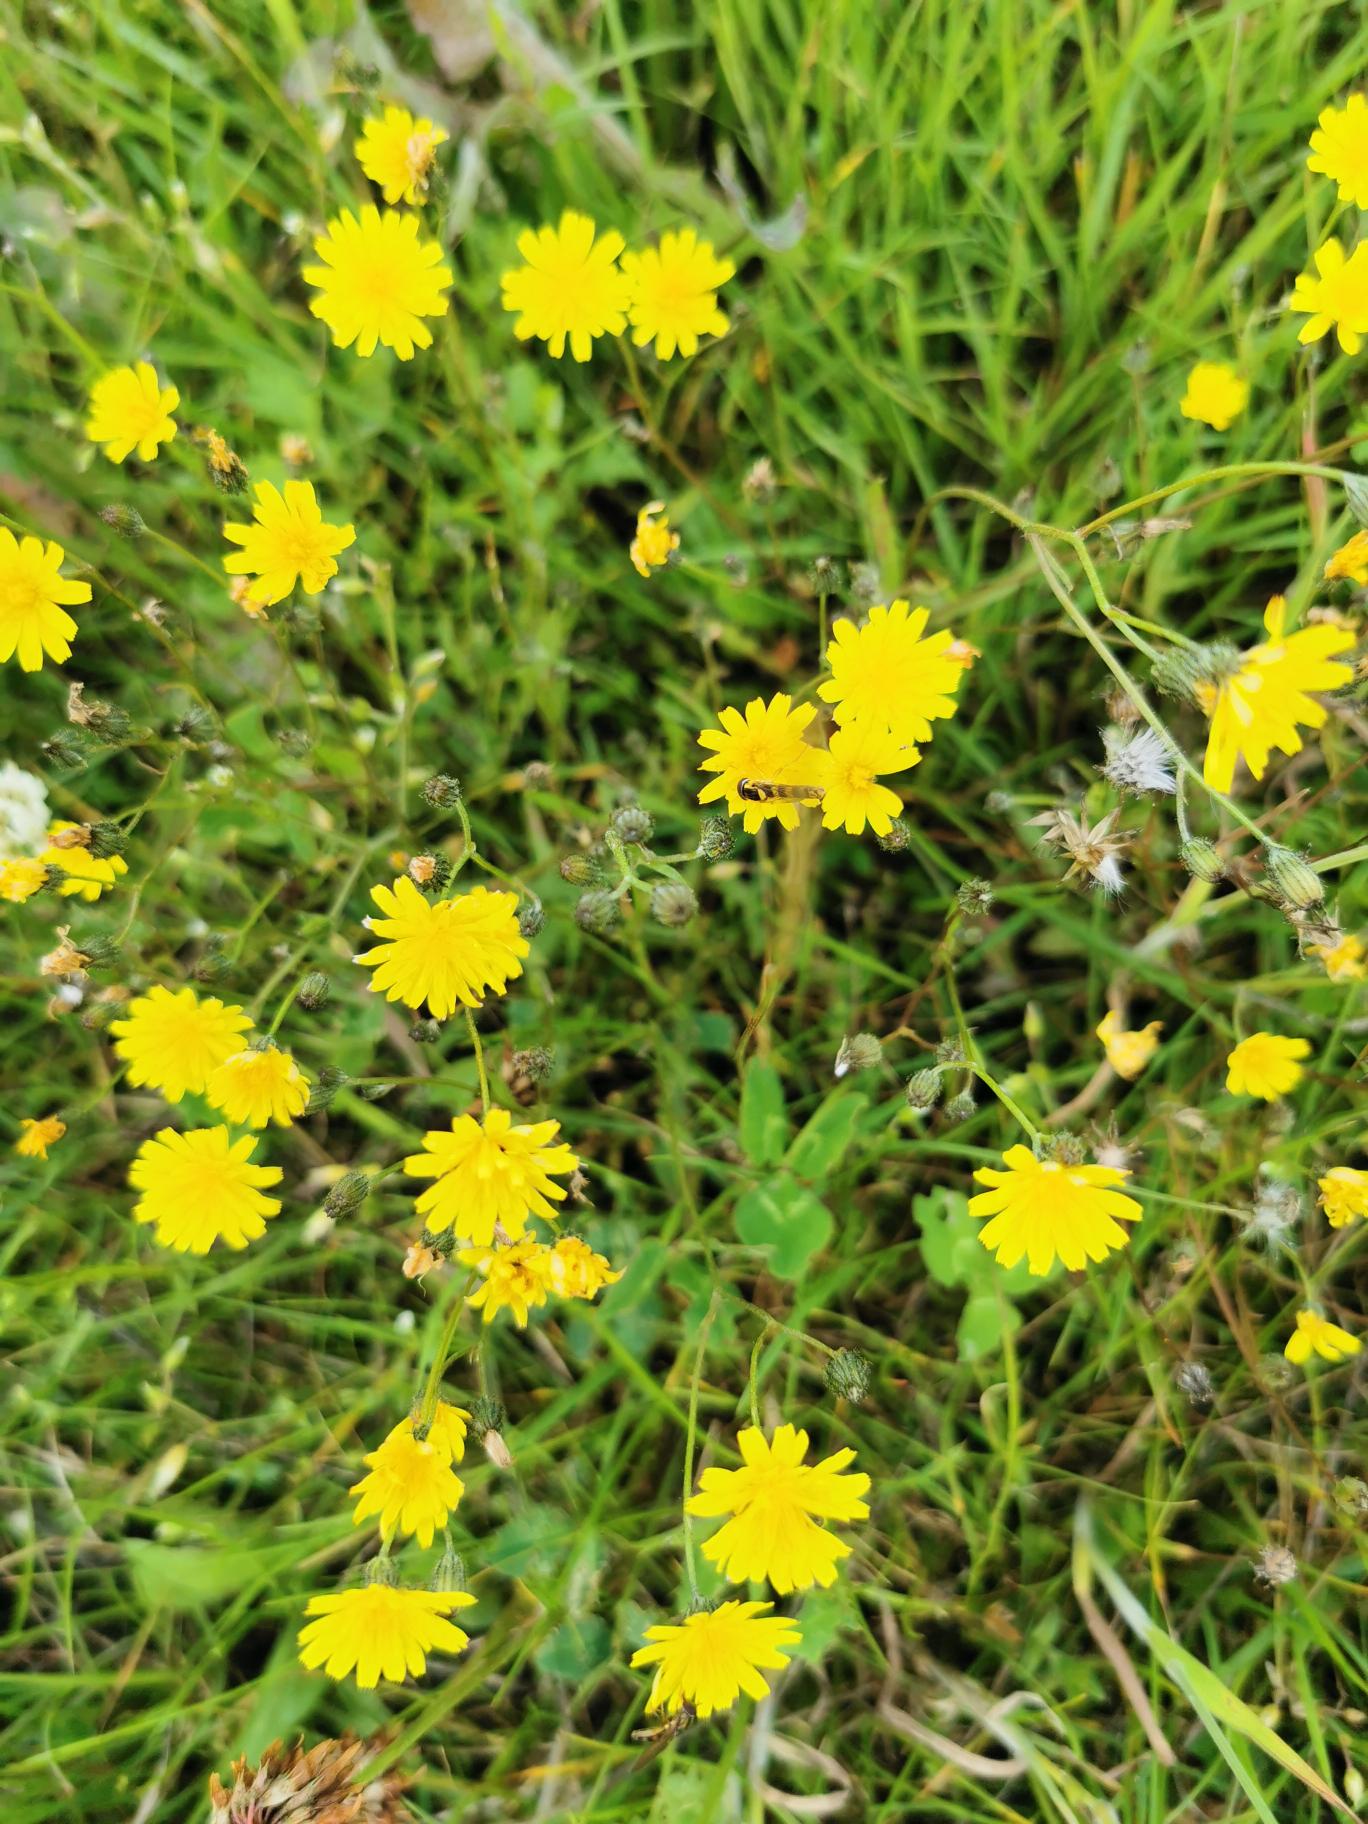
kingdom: Plantae
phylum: Tracheophyta
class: Magnoliopsida
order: Asterales
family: Asteraceae
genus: Crepis
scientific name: Crepis capillaris
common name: Grøn høgeskæg
